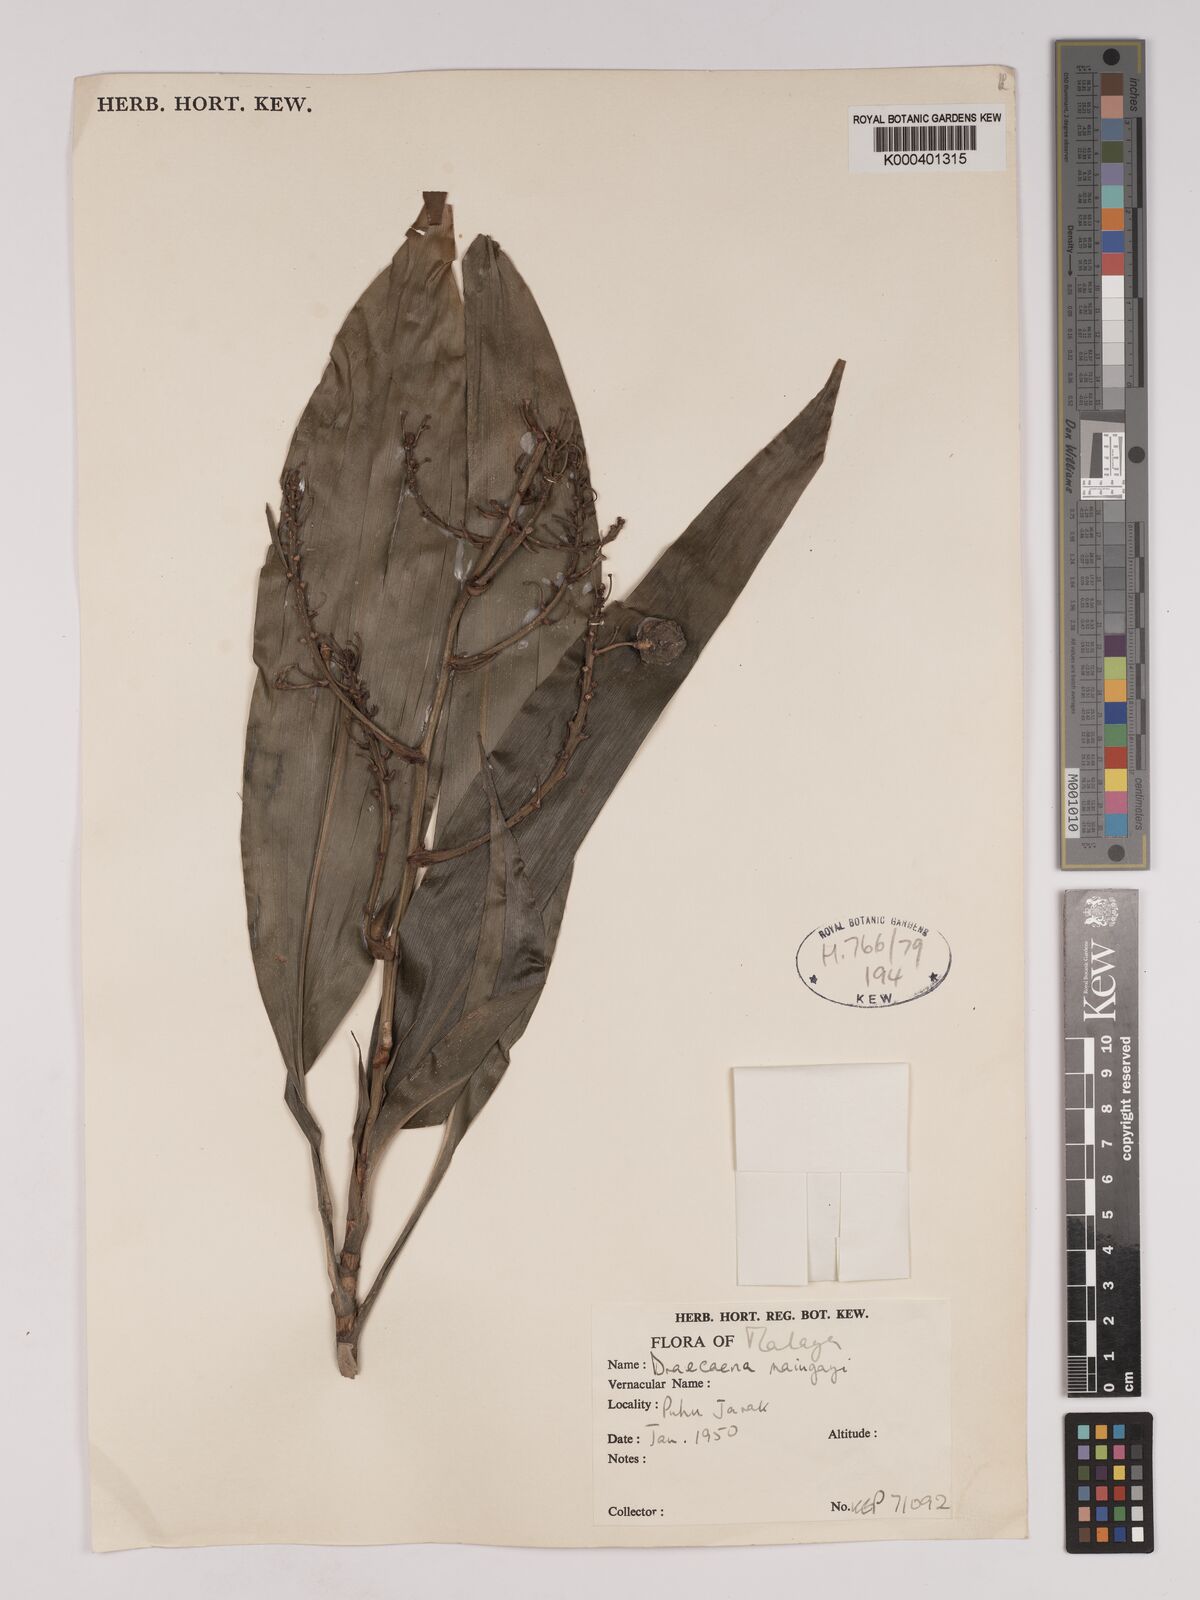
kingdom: Plantae
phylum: Tracheophyta
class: Liliopsida
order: Asparagales
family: Asparagaceae
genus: Dracaena
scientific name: Dracaena maingayi
